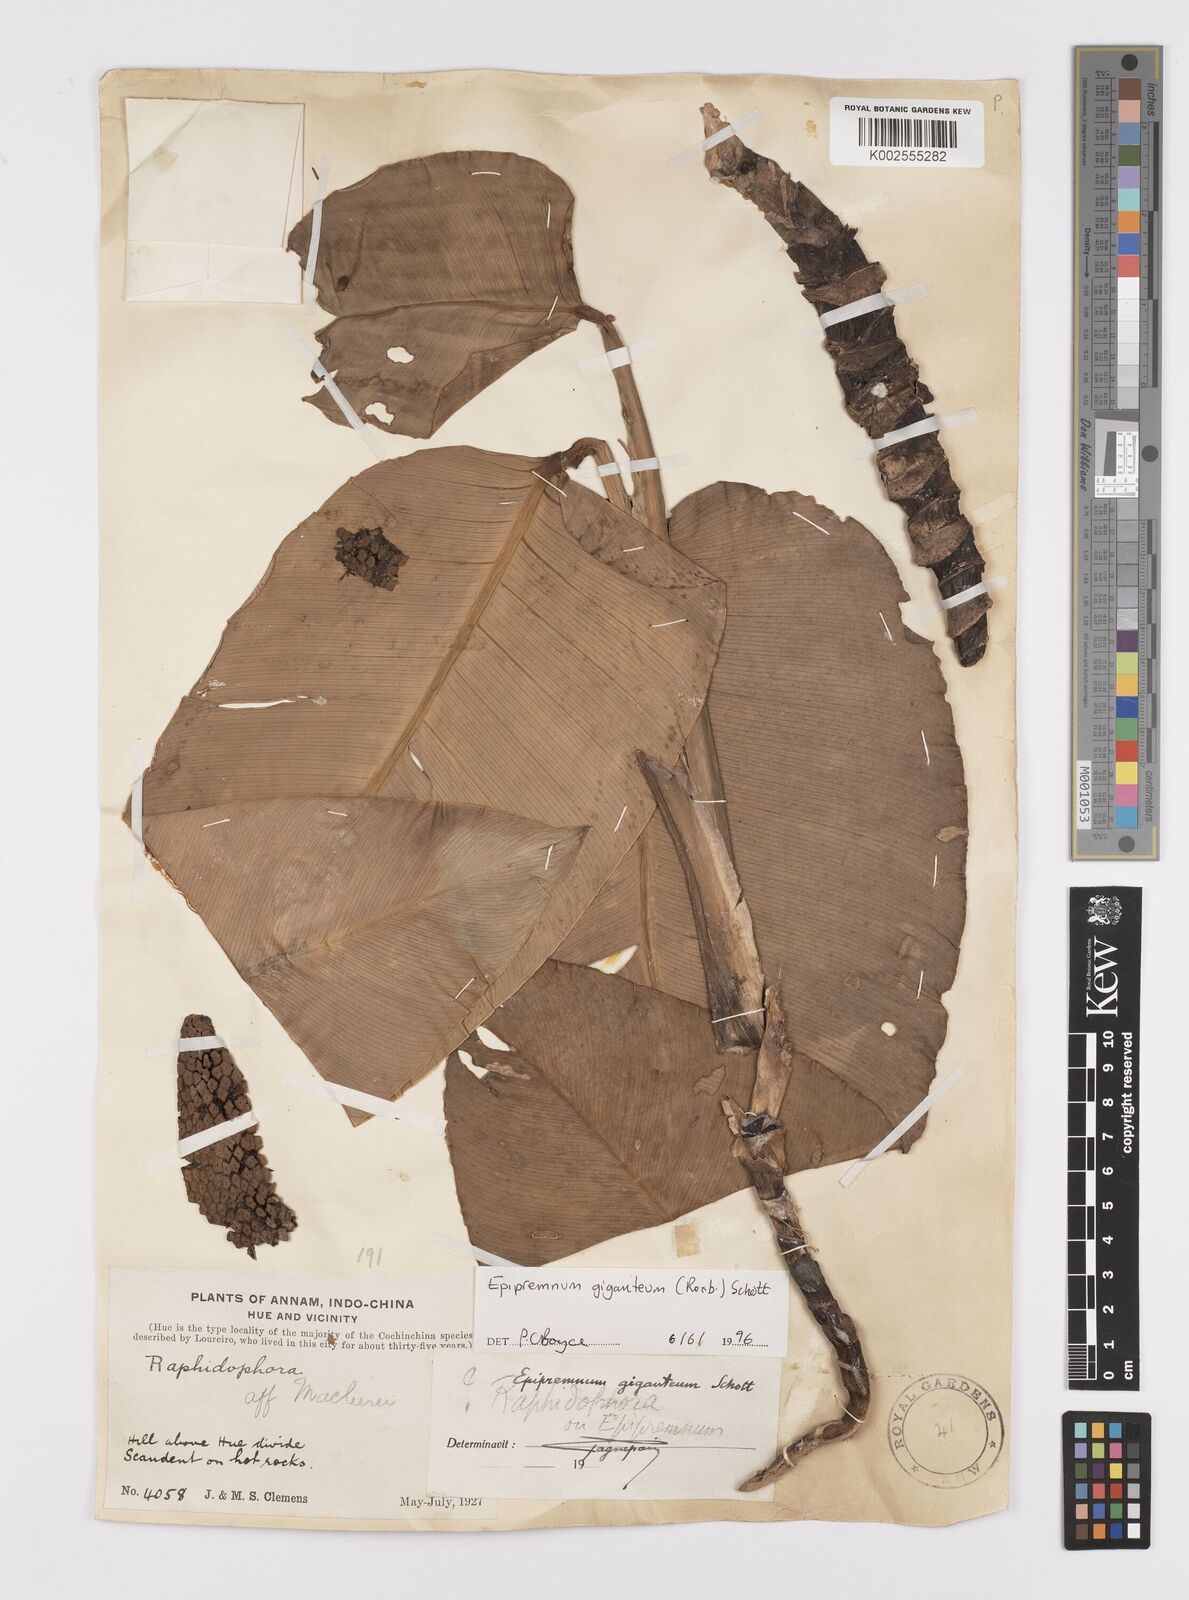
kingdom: Plantae
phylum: Tracheophyta
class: Liliopsida
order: Alismatales
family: Araceae
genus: Epipremnum
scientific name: Epipremnum giganteum
